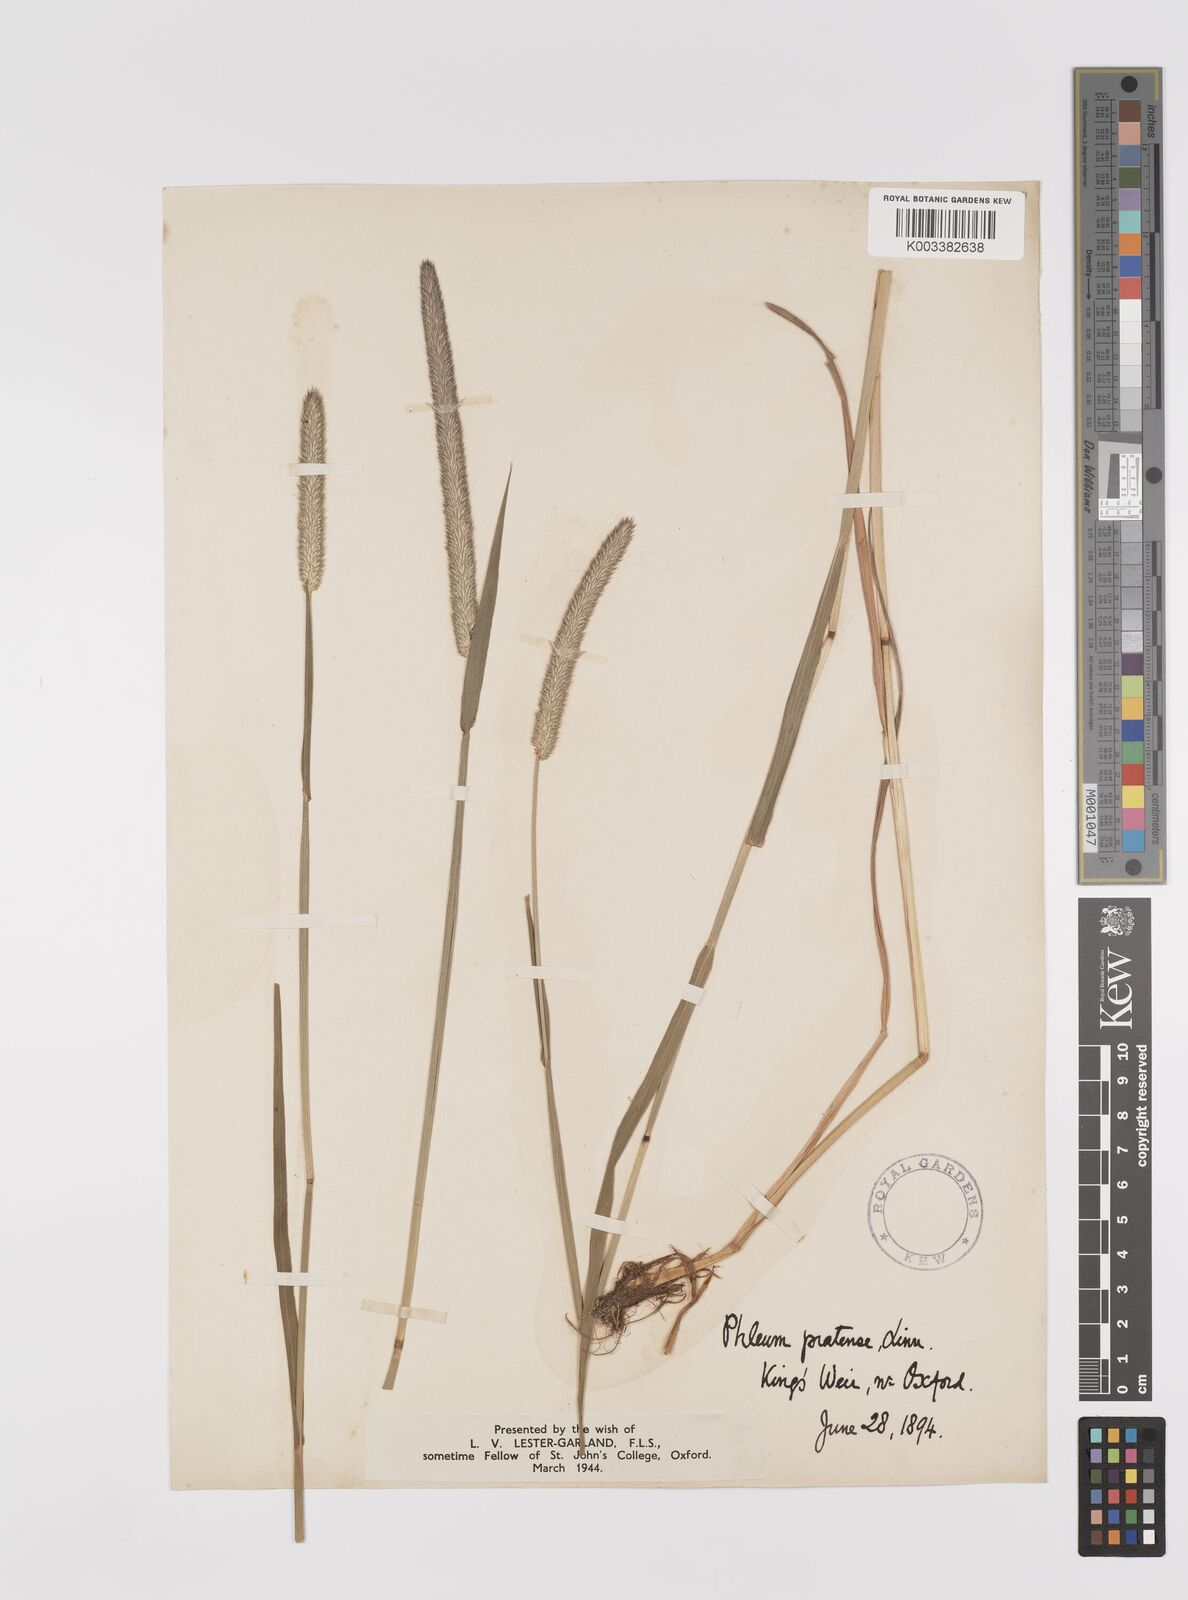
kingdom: Plantae
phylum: Tracheophyta
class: Liliopsida
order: Poales
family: Poaceae
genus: Phleum
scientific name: Phleum pratense
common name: Timothy grass
